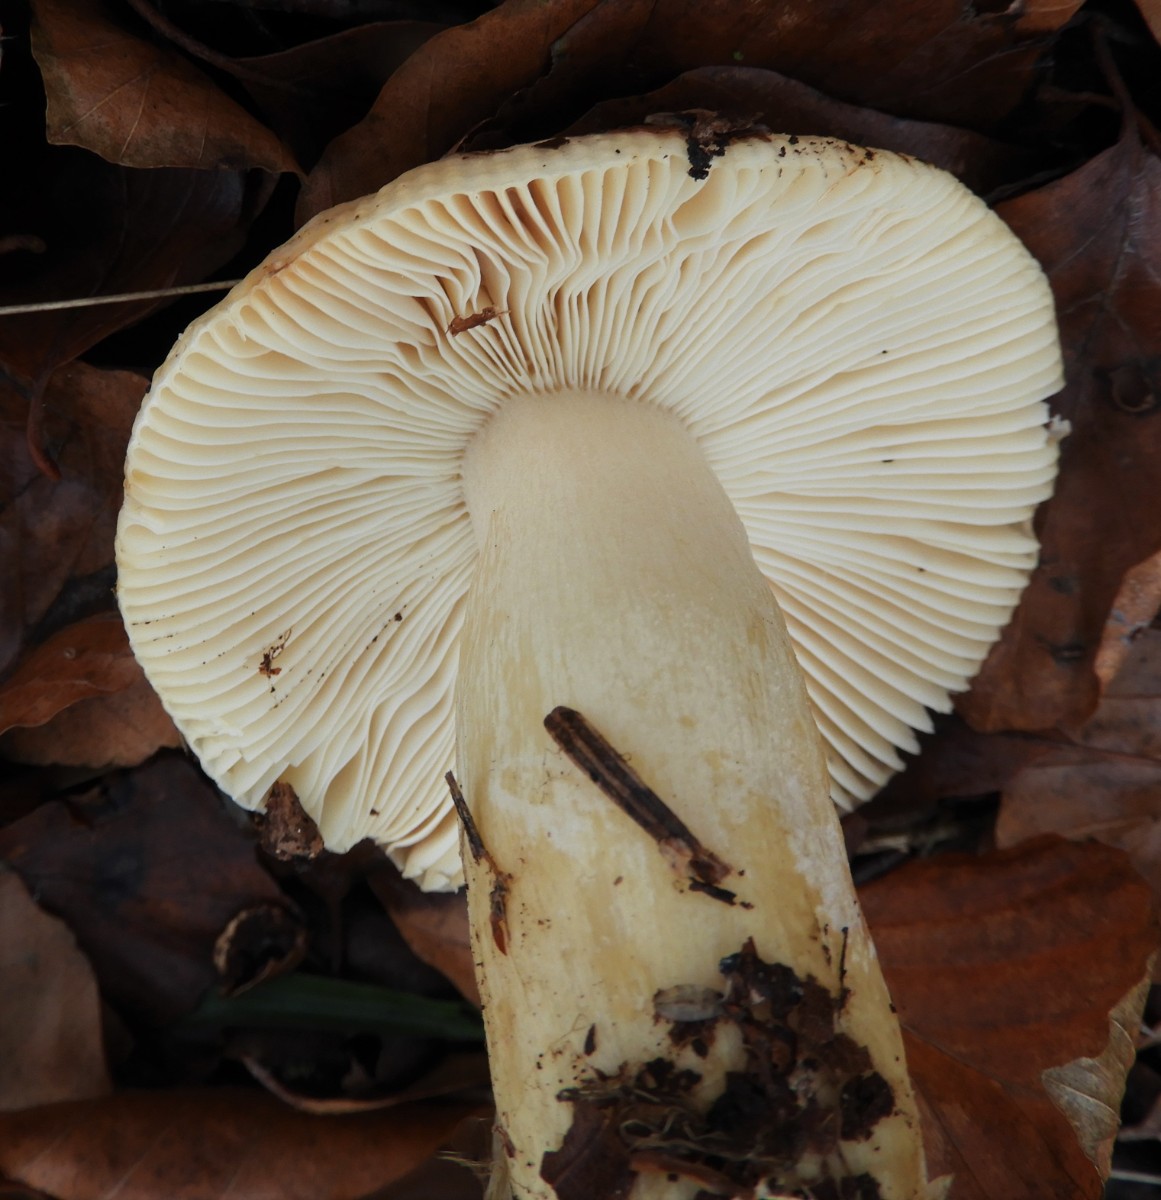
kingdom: Fungi
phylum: Basidiomycota
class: Agaricomycetes
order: Russulales
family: Russulaceae
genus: Russula
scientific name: Russula fellea
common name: galde-skørhat
